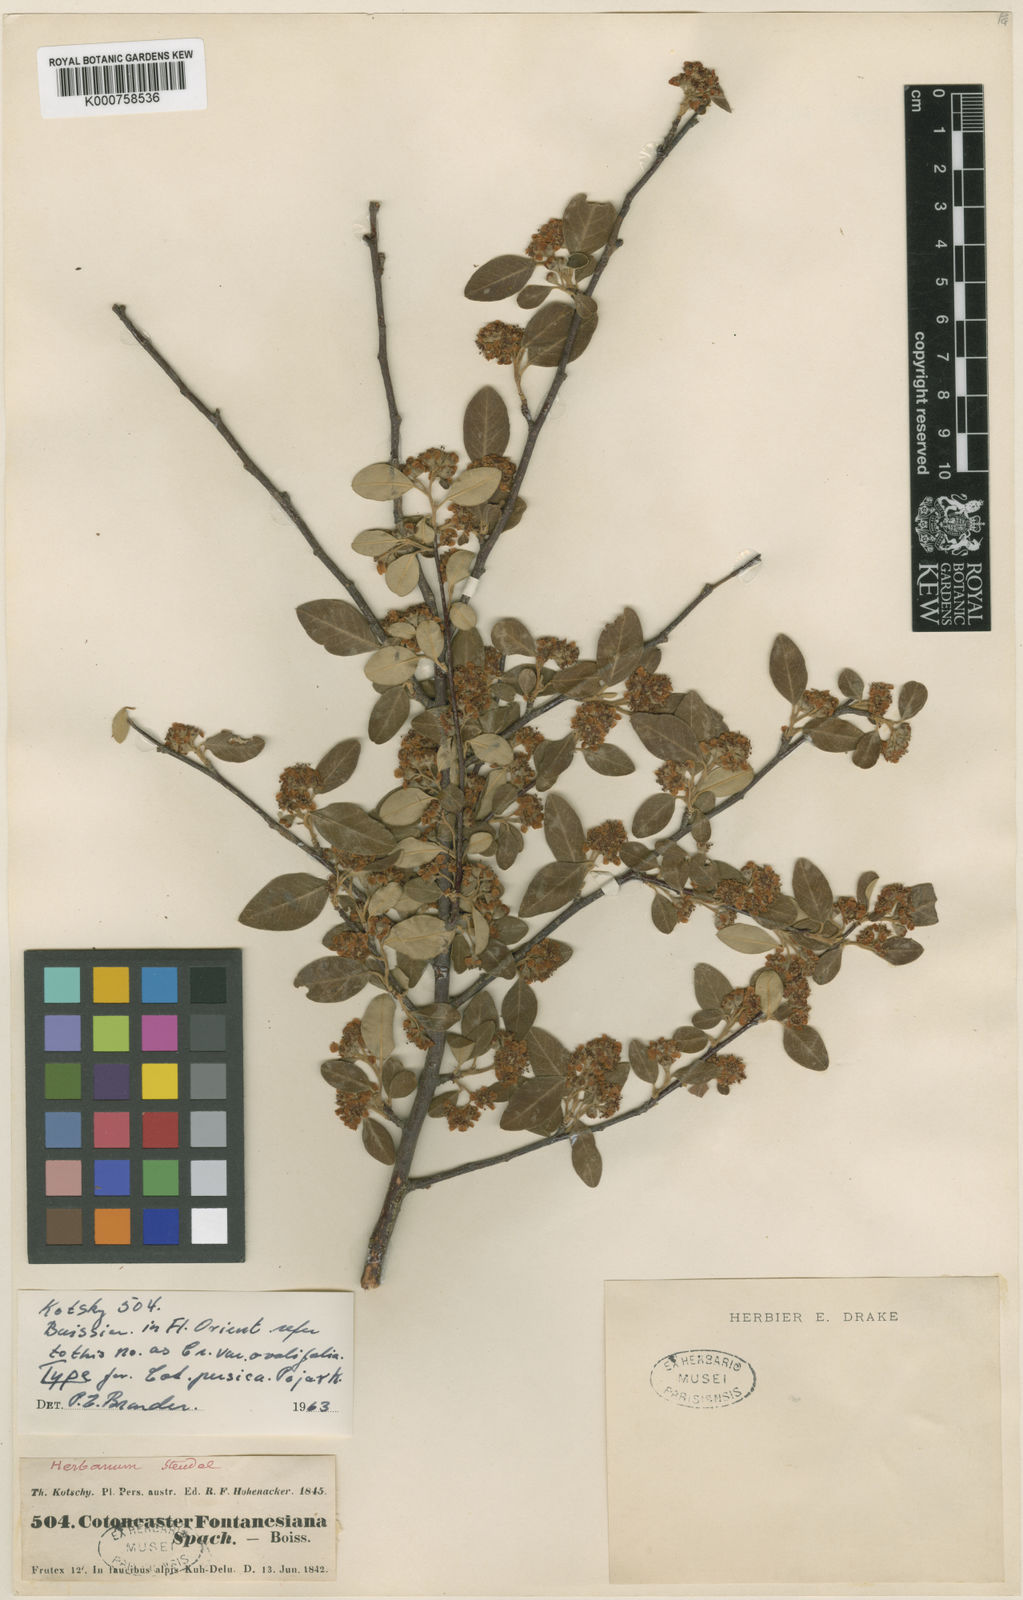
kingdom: Plantae
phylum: Tracheophyta
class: Magnoliopsida
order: Rosales
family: Rosaceae
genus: Cotoneaster
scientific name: Cotoneaster persicus
